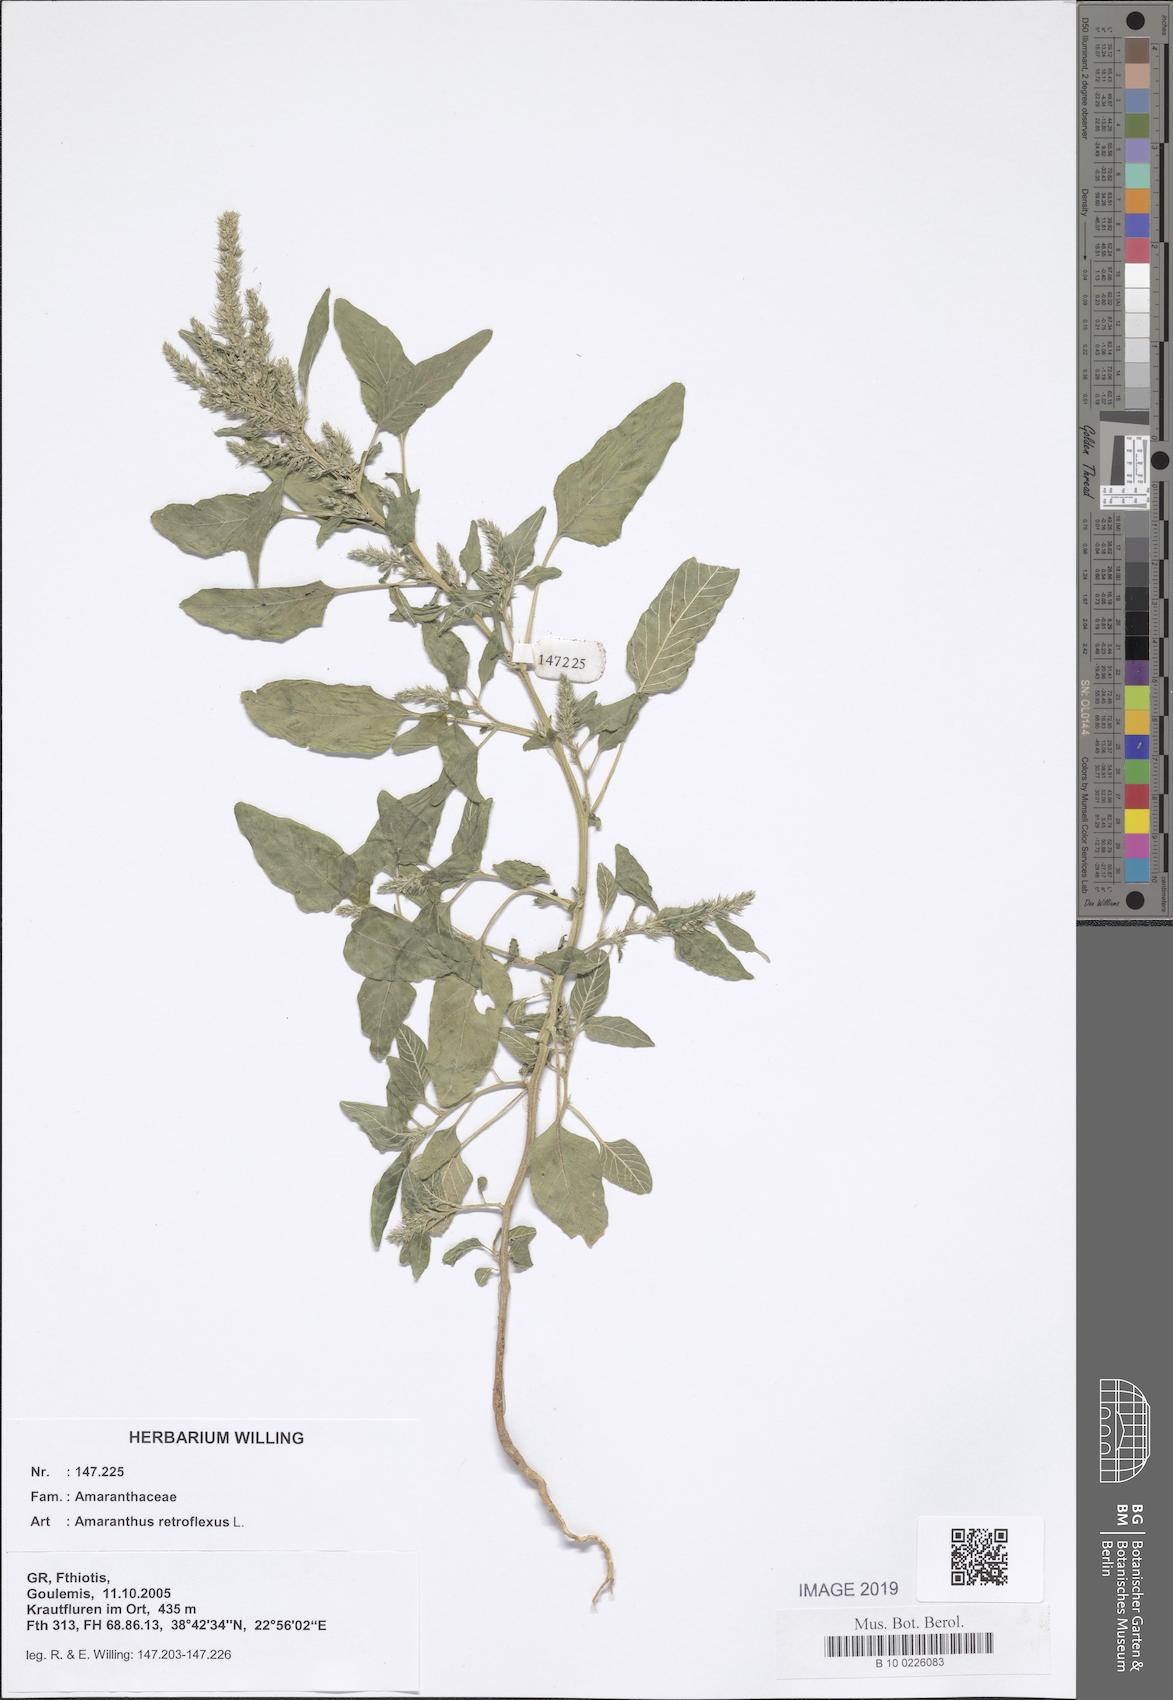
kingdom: Plantae
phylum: Tracheophyta
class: Magnoliopsida
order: Caryophyllales
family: Amaranthaceae
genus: Amaranthus
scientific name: Amaranthus retroflexus
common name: Redroot amaranth
